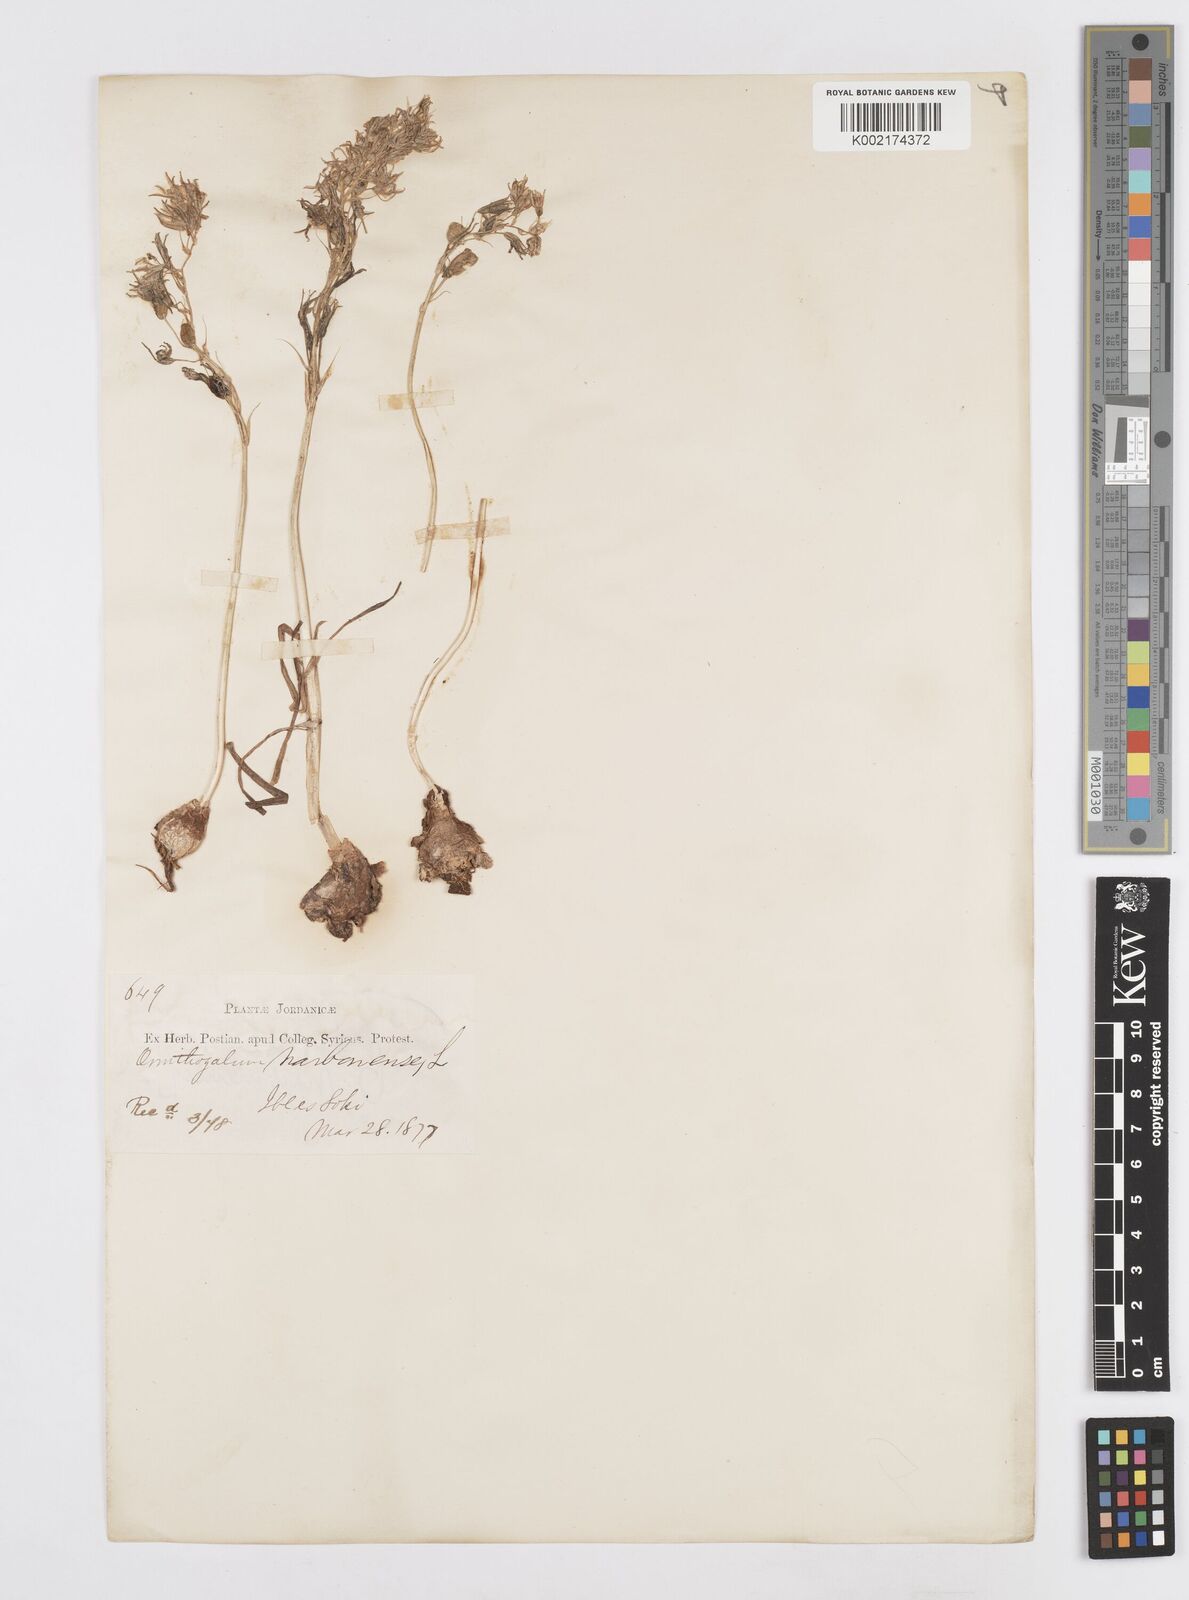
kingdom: Plantae
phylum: Tracheophyta
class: Liliopsida
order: Asparagales
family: Asparagaceae
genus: Ornithogalum
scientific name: Ornithogalum narbonense
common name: Bath-asparagus
